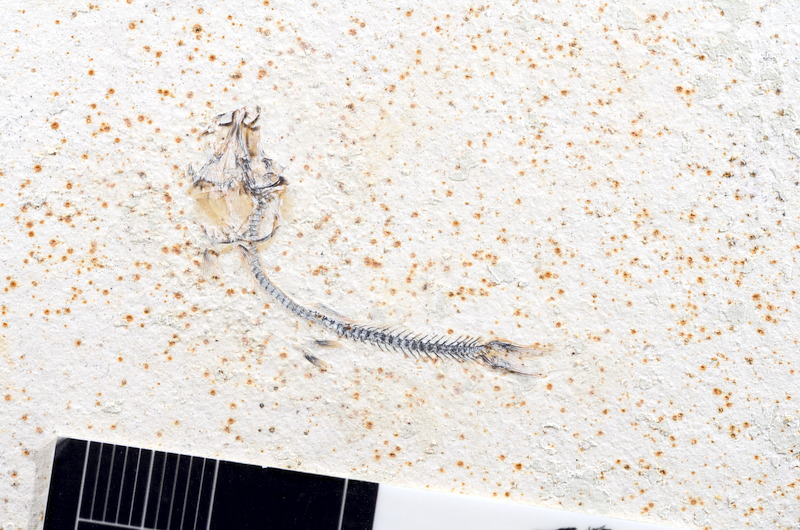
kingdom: Animalia
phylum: Chordata
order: Salmoniformes
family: Orthogonikleithridae
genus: Orthogonikleithrus
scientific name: Orthogonikleithrus hoelli
